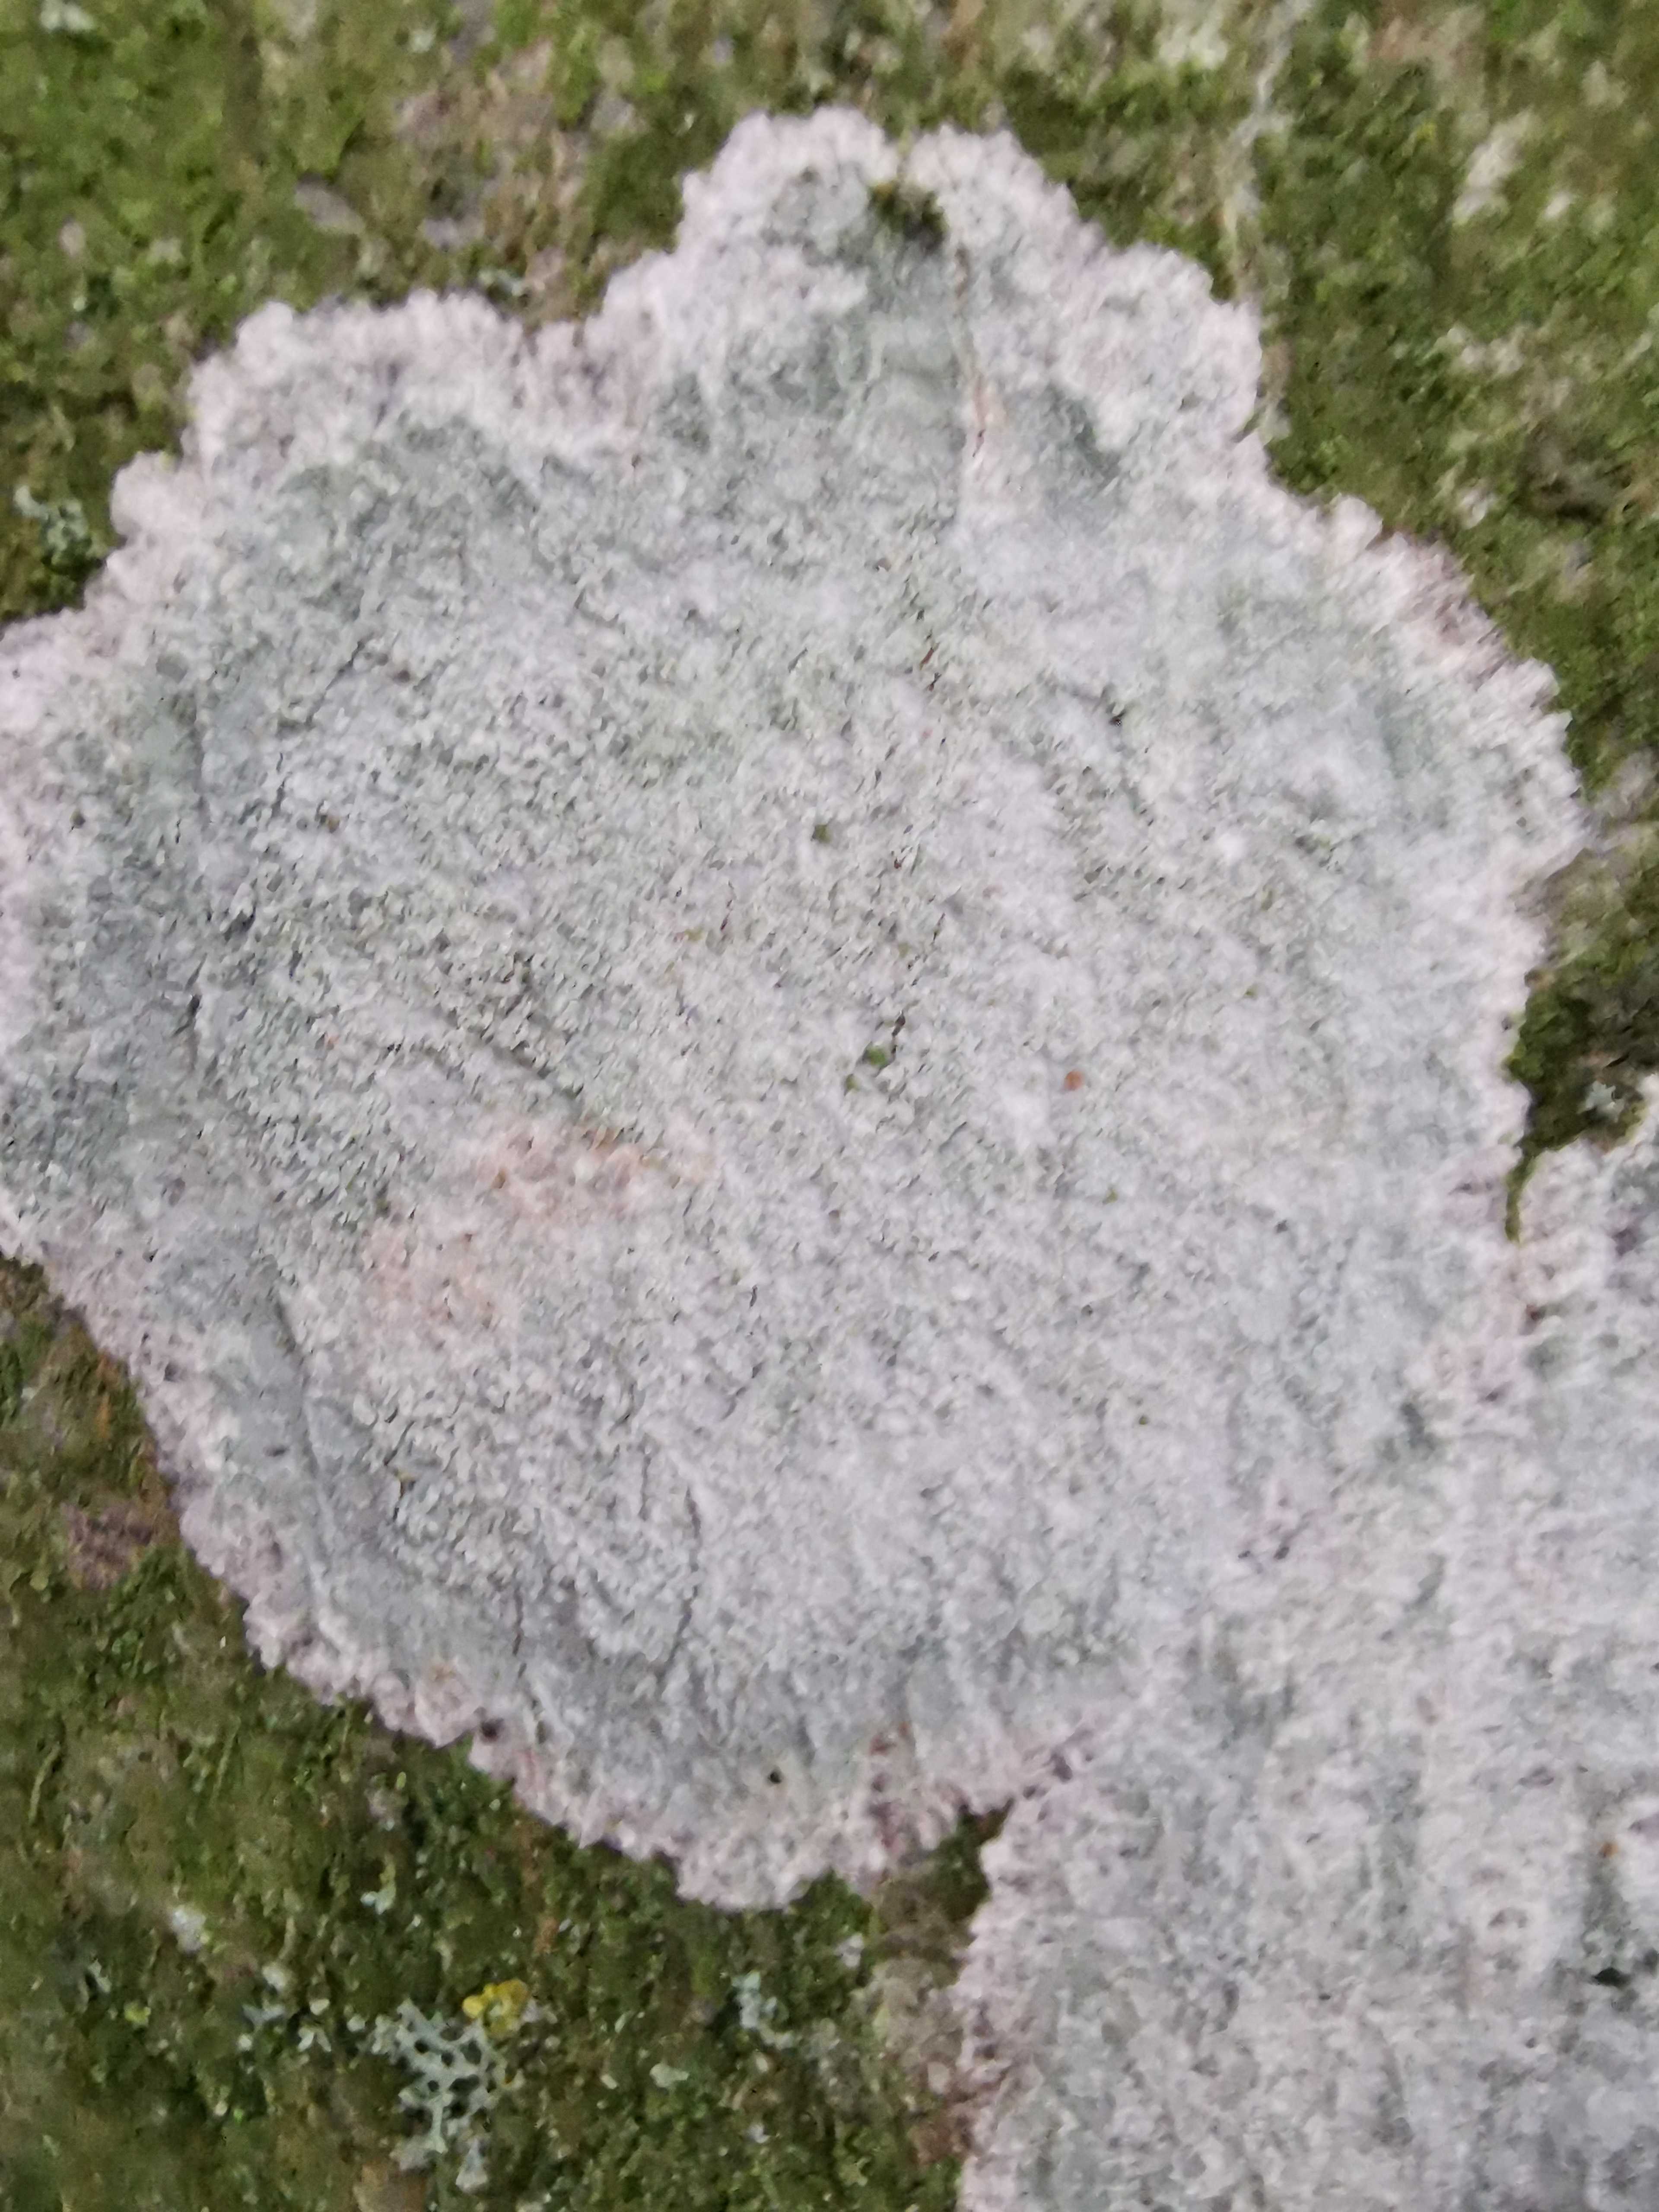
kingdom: Fungi
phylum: Ascomycota
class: Lecanoromycetes
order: Ostropales
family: Phlyctidaceae
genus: Phlyctis
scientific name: Phlyctis argena
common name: almindelig sølvlav
